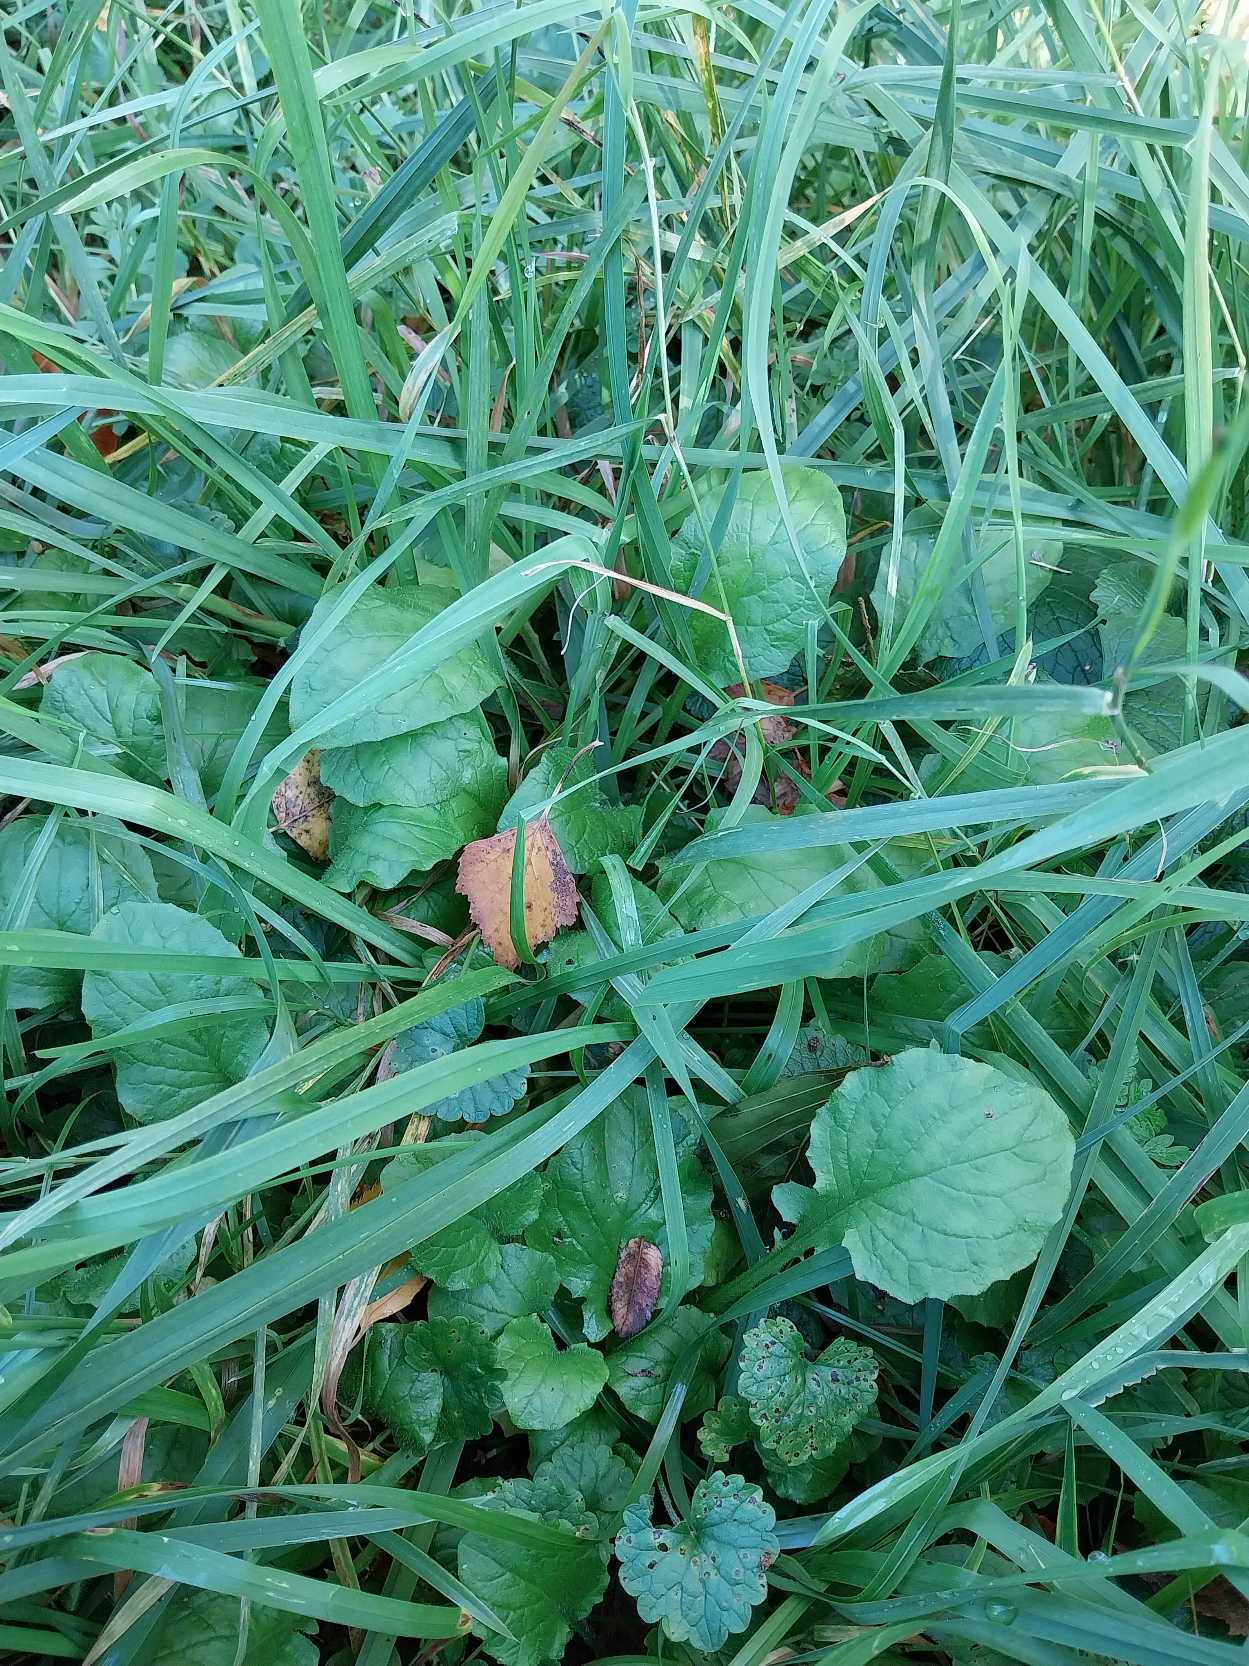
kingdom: Plantae
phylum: Tracheophyta
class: Magnoliopsida
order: Asterales
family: Asteraceae
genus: Lapsana
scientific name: Lapsana communis
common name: Haremad
